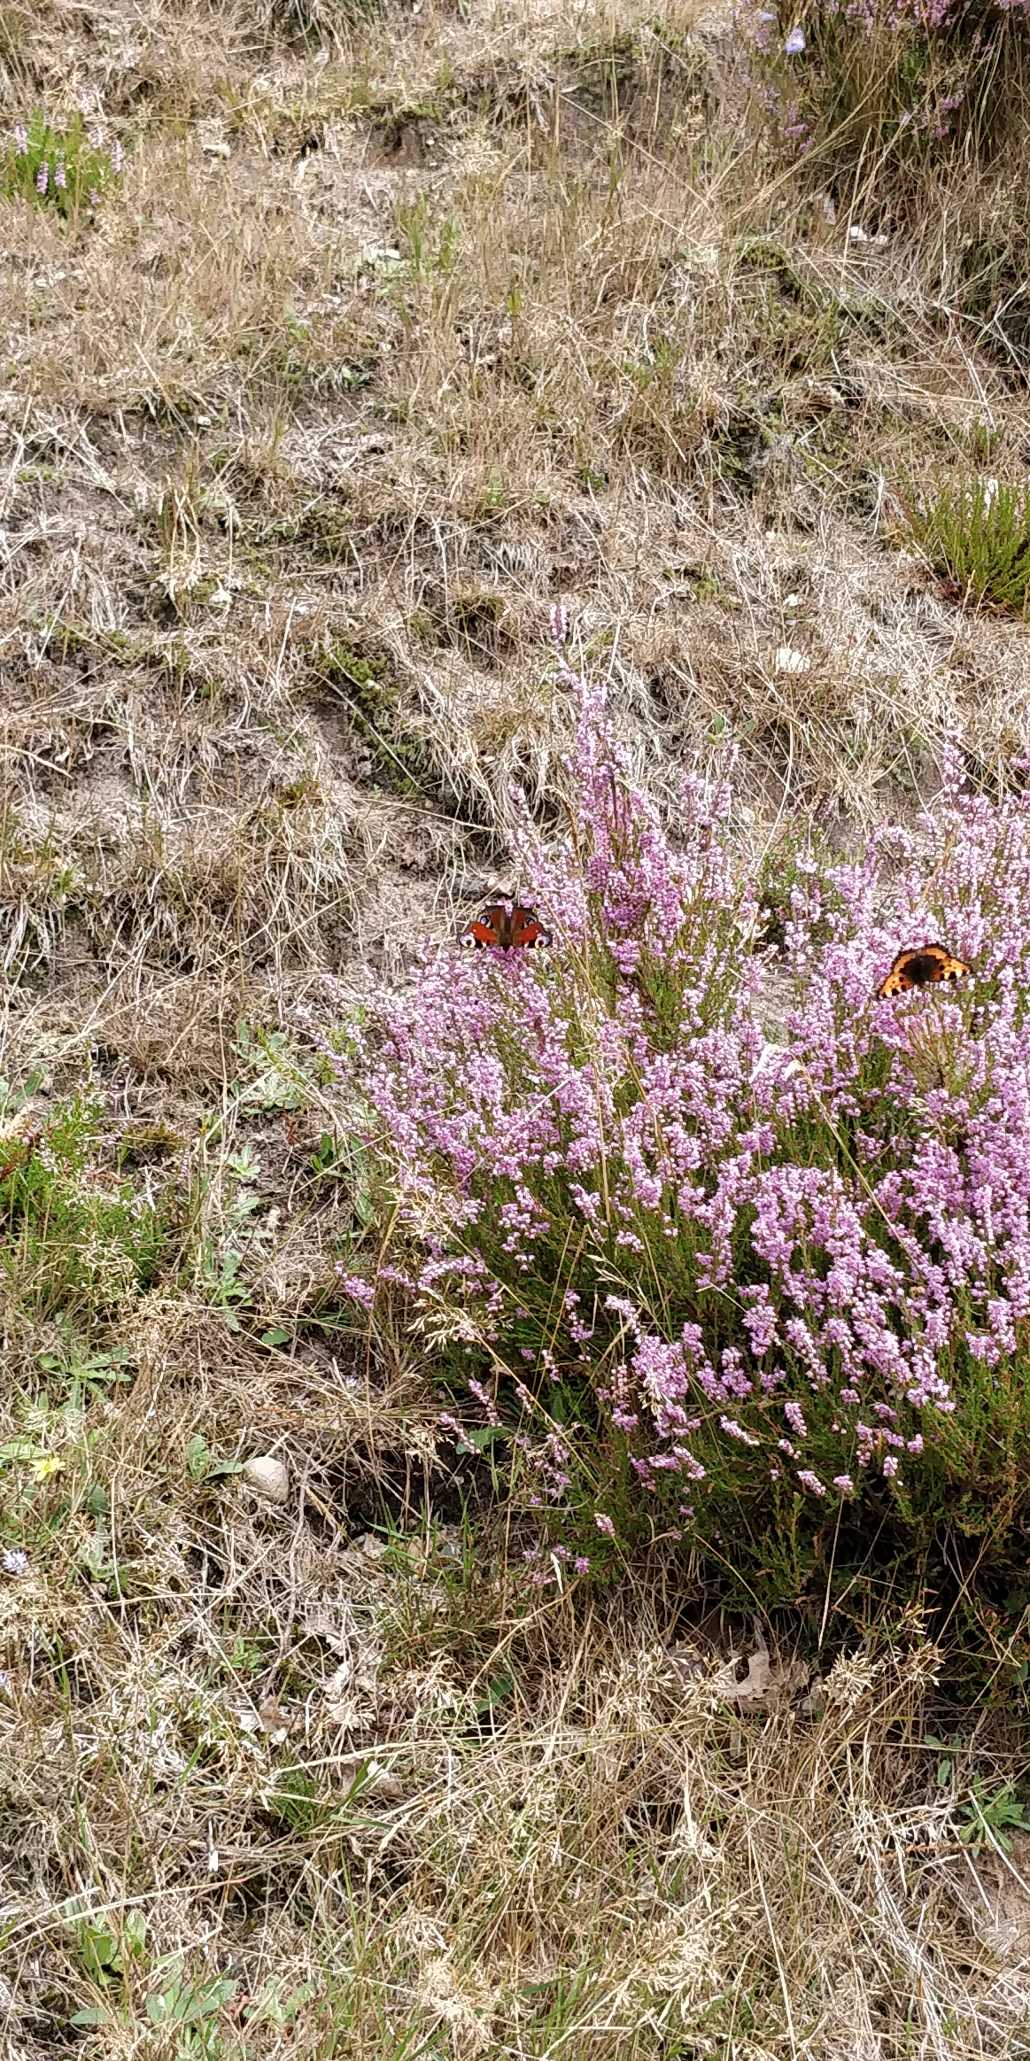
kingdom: Animalia
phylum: Arthropoda
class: Insecta
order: Lepidoptera
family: Nymphalidae
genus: Aglais
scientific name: Aglais io
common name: Dagpåfugleøje
